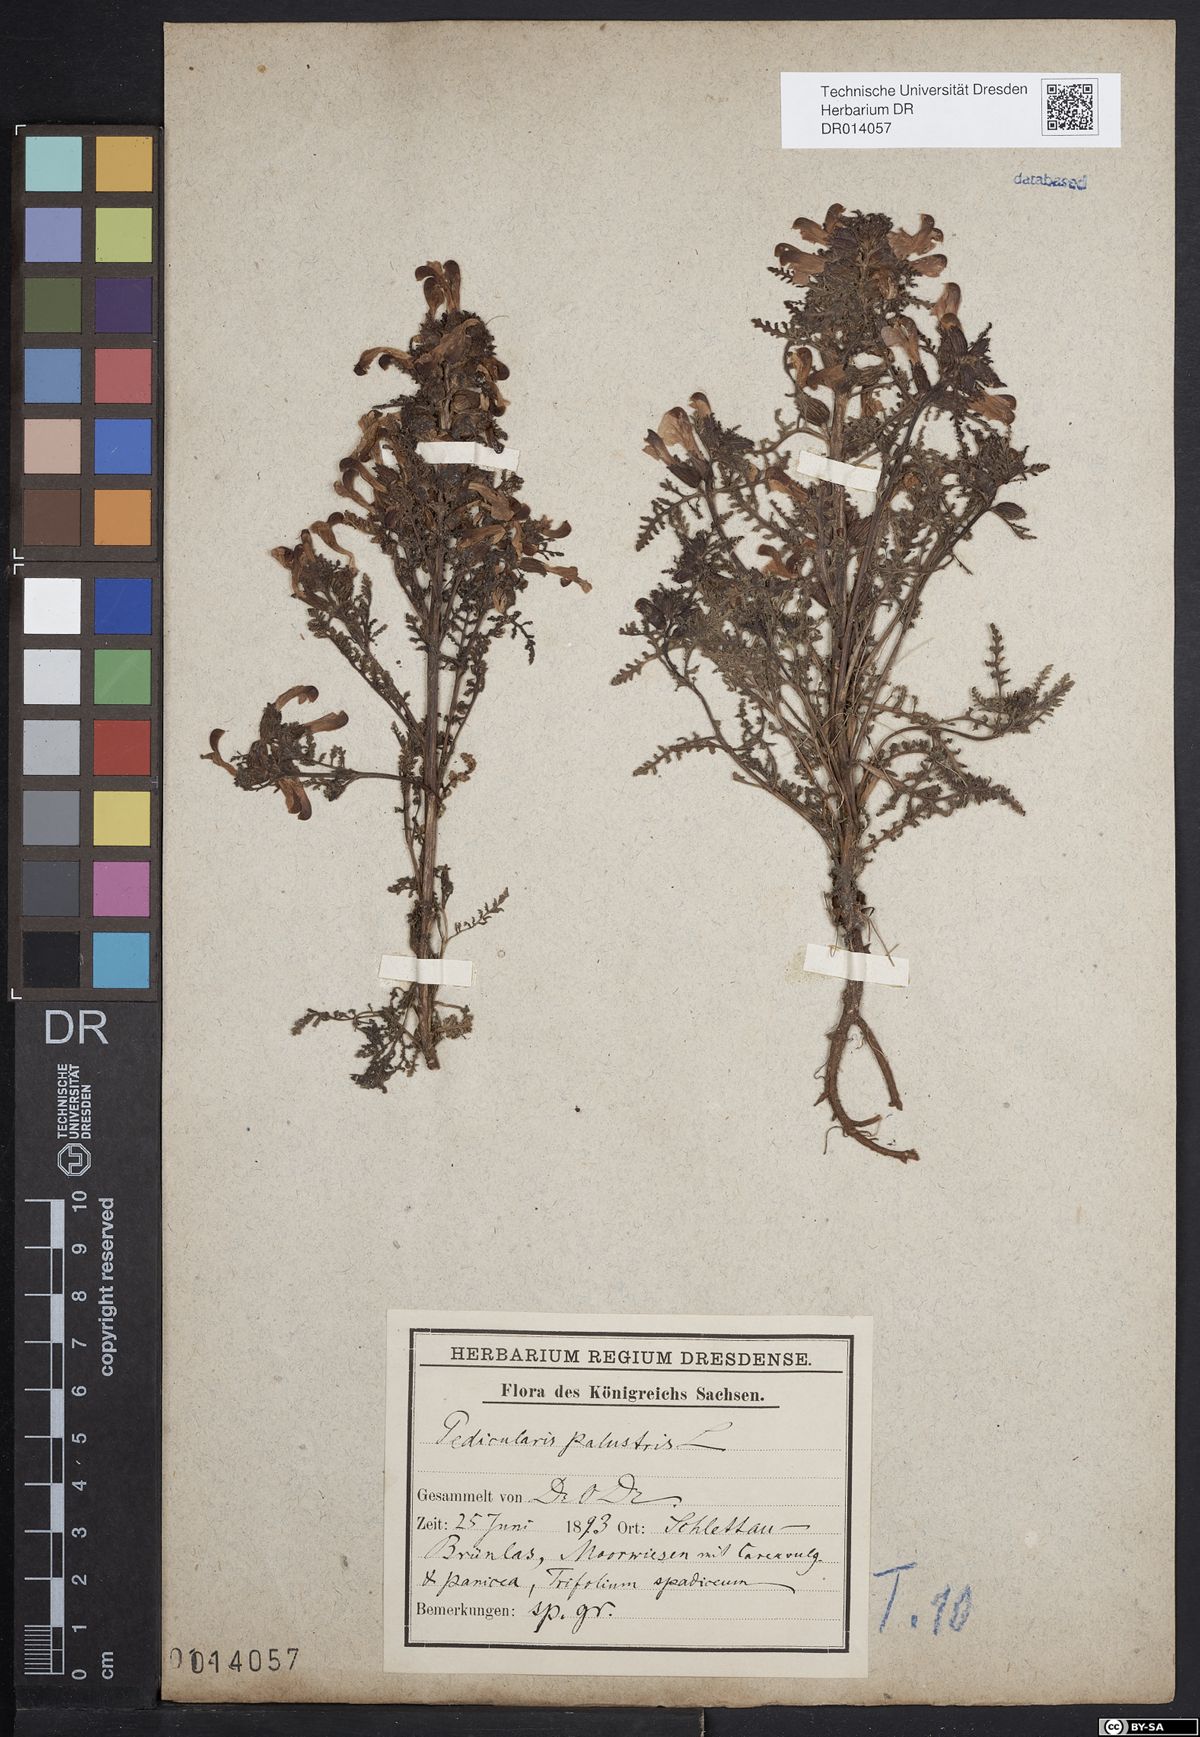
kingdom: Plantae
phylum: Tracheophyta
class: Magnoliopsida
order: Lamiales
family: Orobanchaceae
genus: Pedicularis
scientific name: Pedicularis palustris
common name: Marsh lousewort
